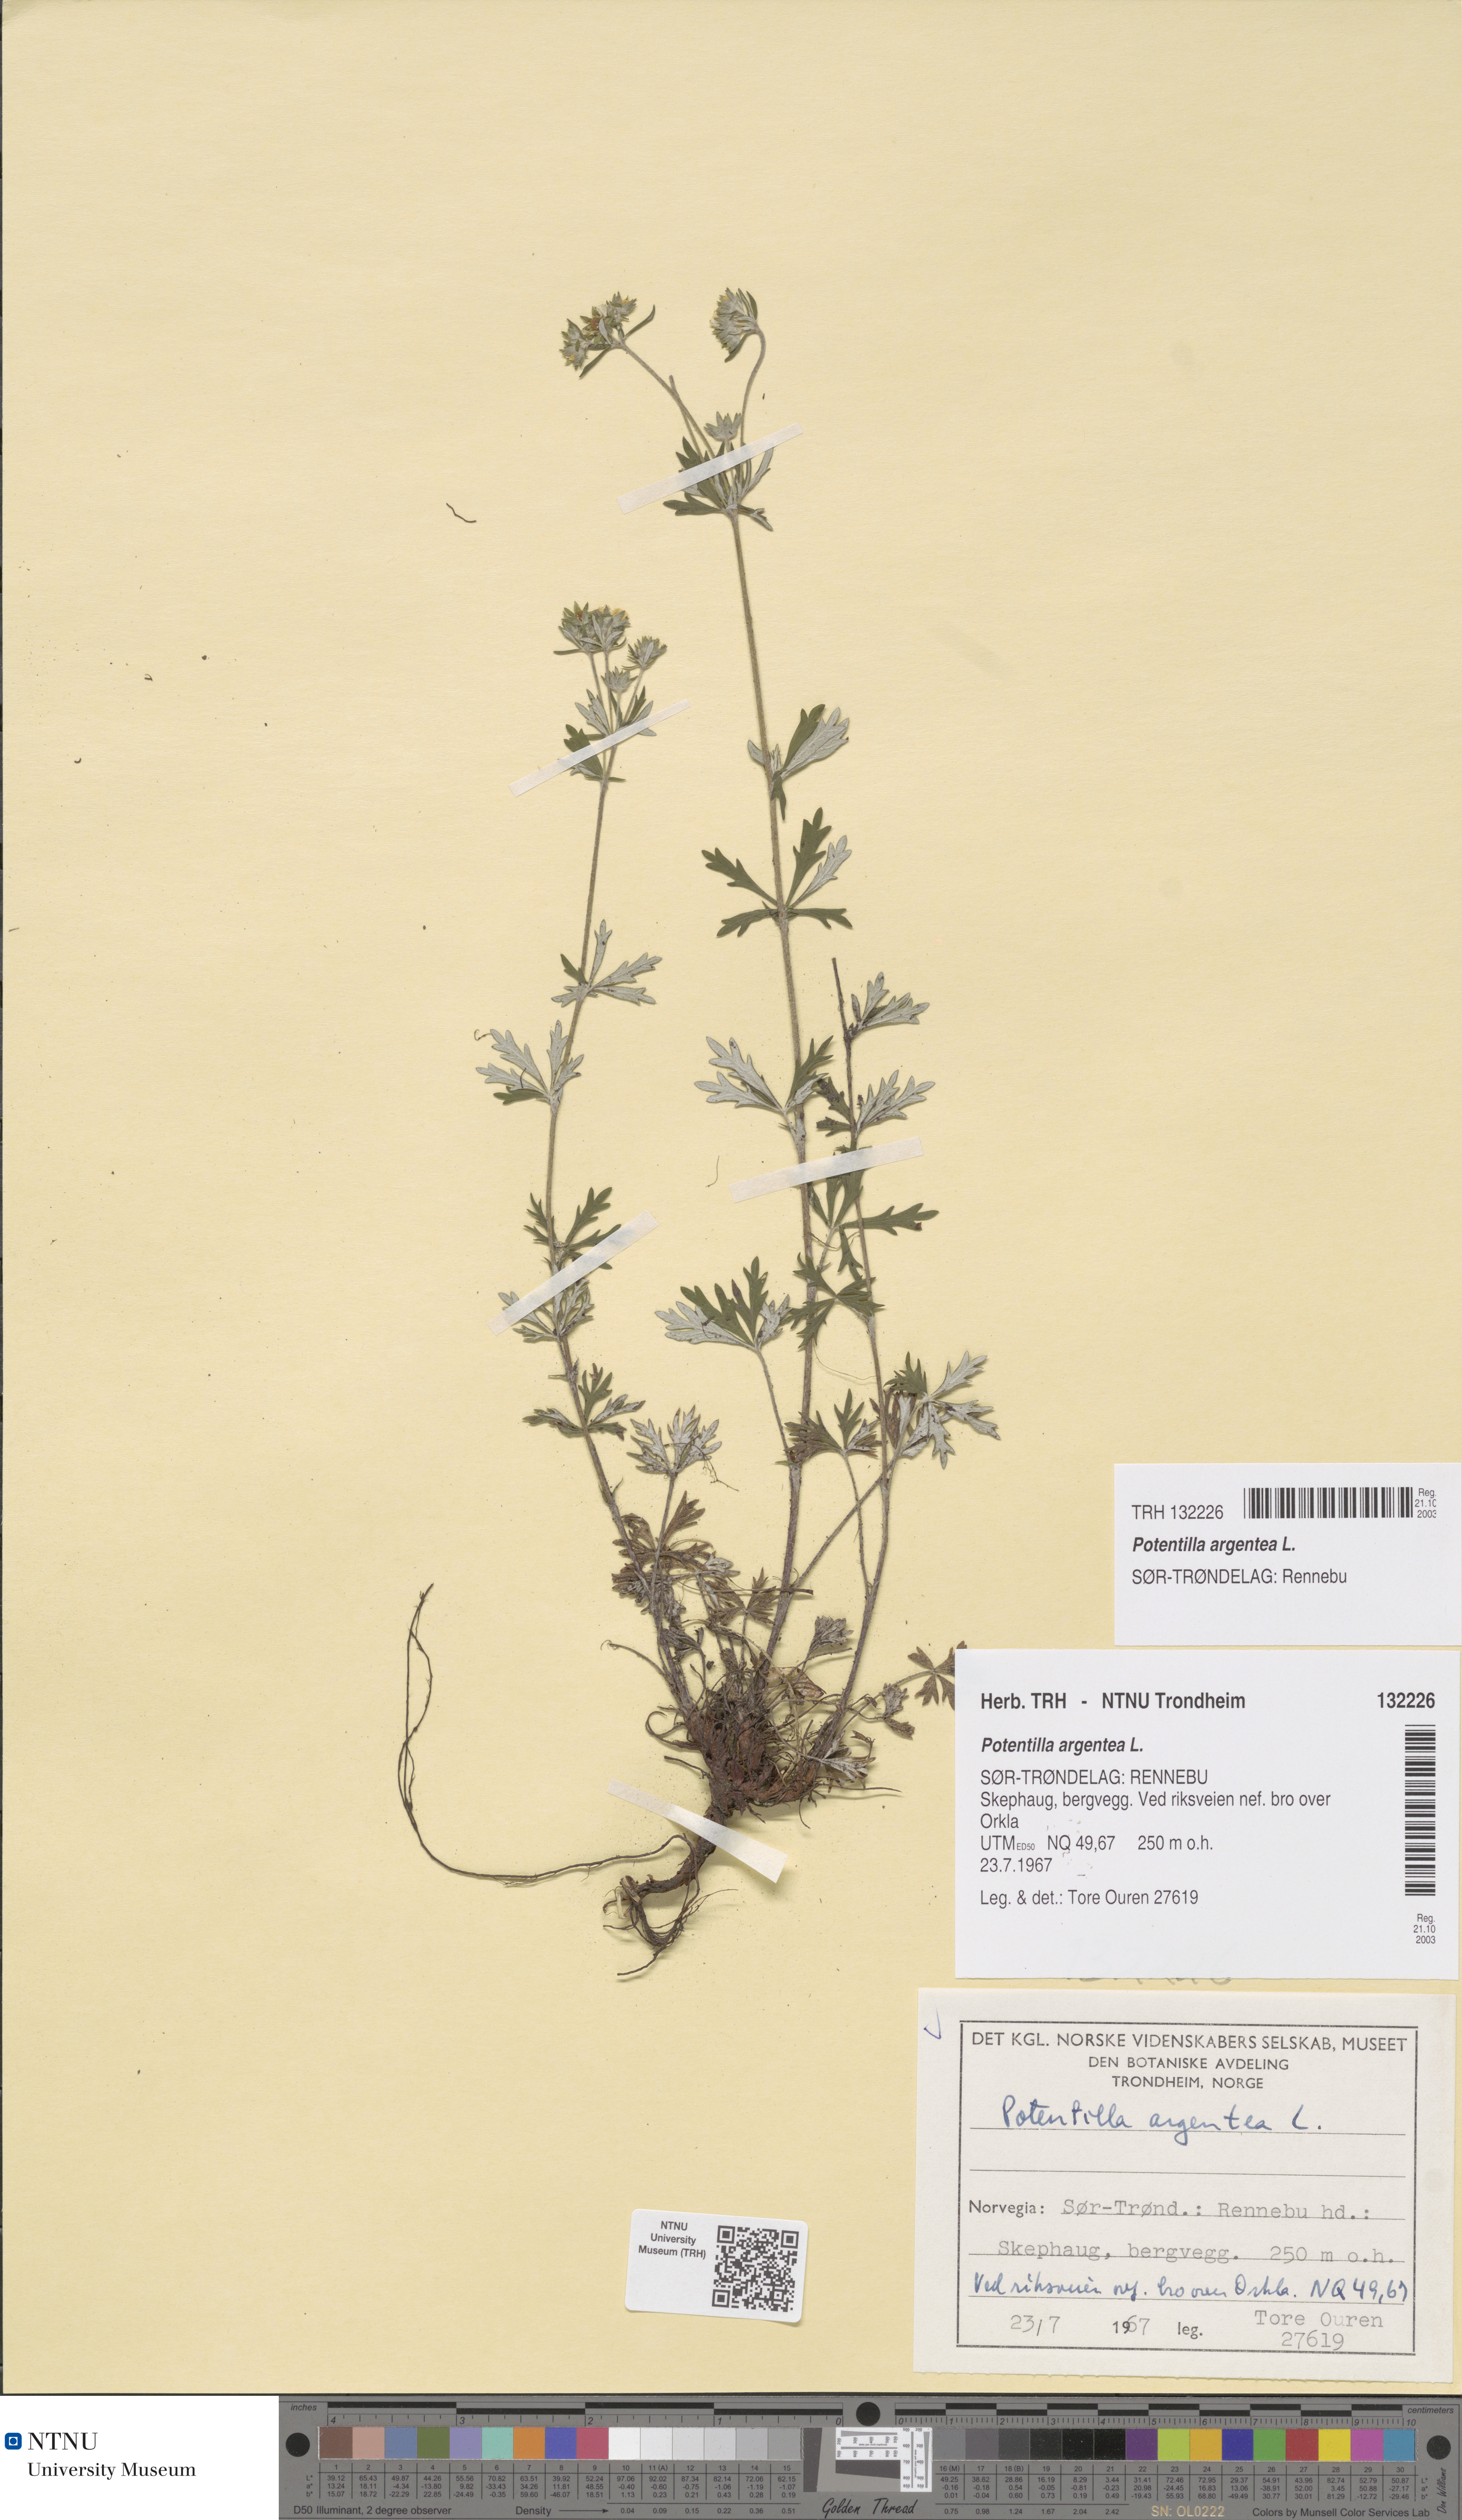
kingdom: Plantae
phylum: Tracheophyta
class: Magnoliopsida
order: Rosales
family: Rosaceae
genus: Potentilla
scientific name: Potentilla argentea
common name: Hoary cinquefoil
